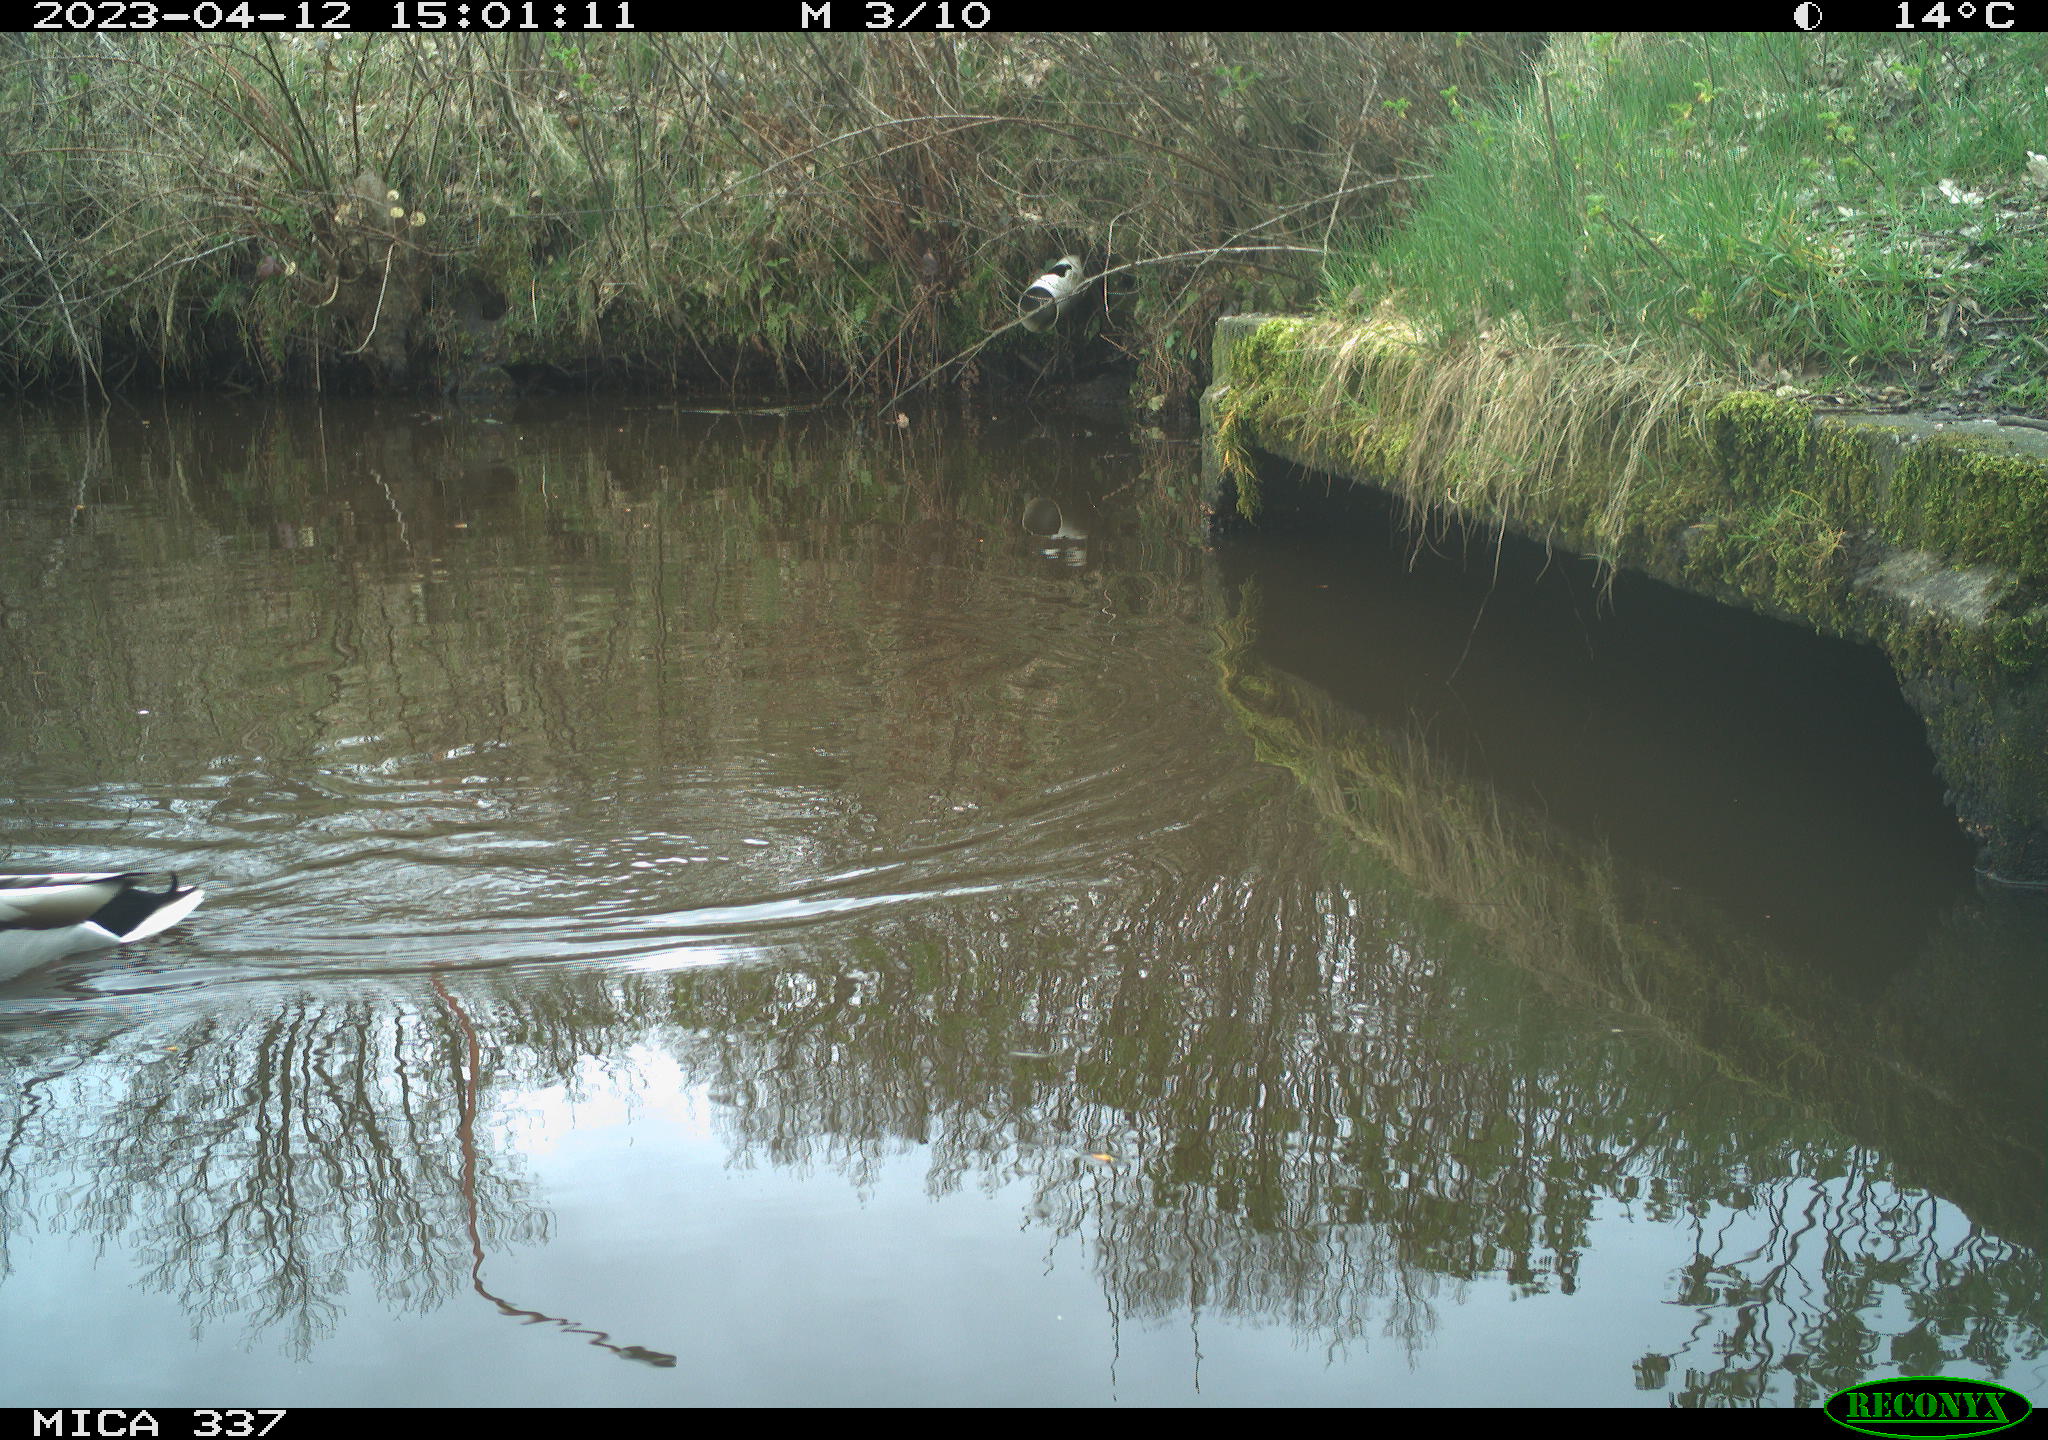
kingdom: Animalia
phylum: Chordata
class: Aves
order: Anseriformes
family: Anatidae
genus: Anas
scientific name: Anas
